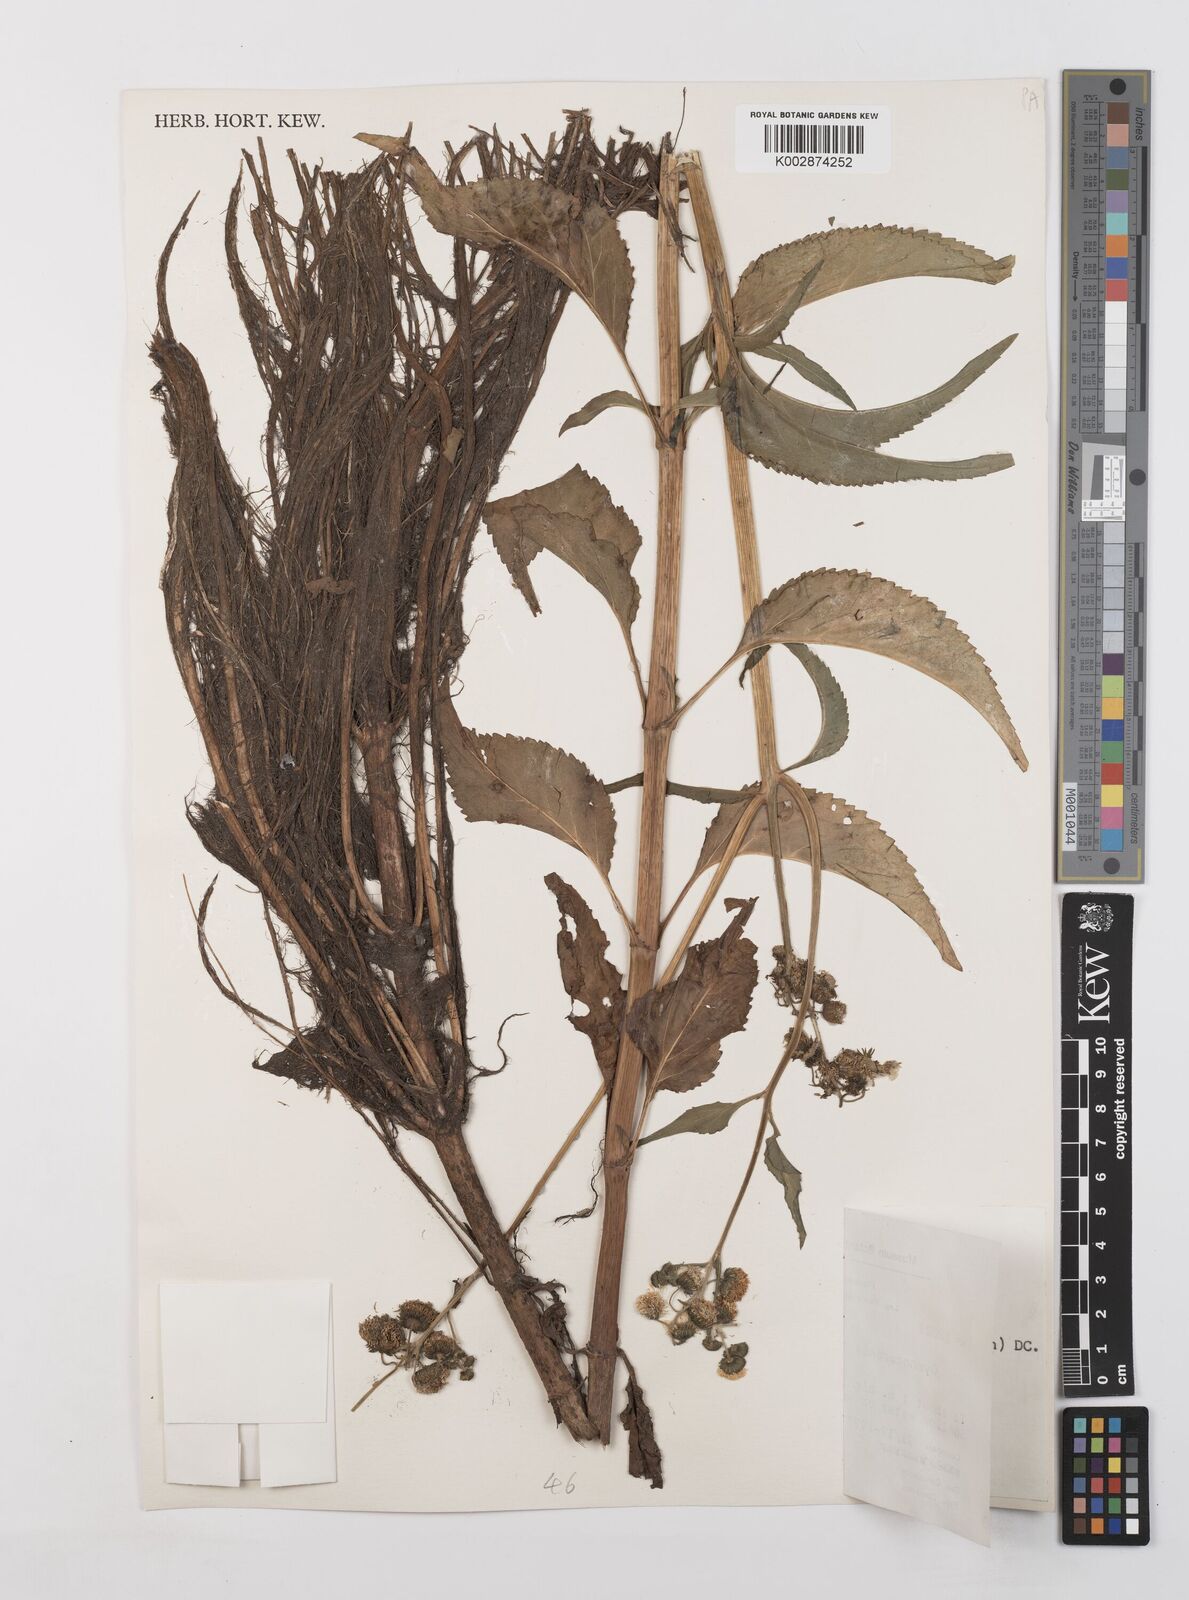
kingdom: Plantae
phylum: Tracheophyta
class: Magnoliopsida
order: Asterales
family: Asteraceae
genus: Gymnocoronis
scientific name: Gymnocoronis spilanthoides
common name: Senegal teaplant
